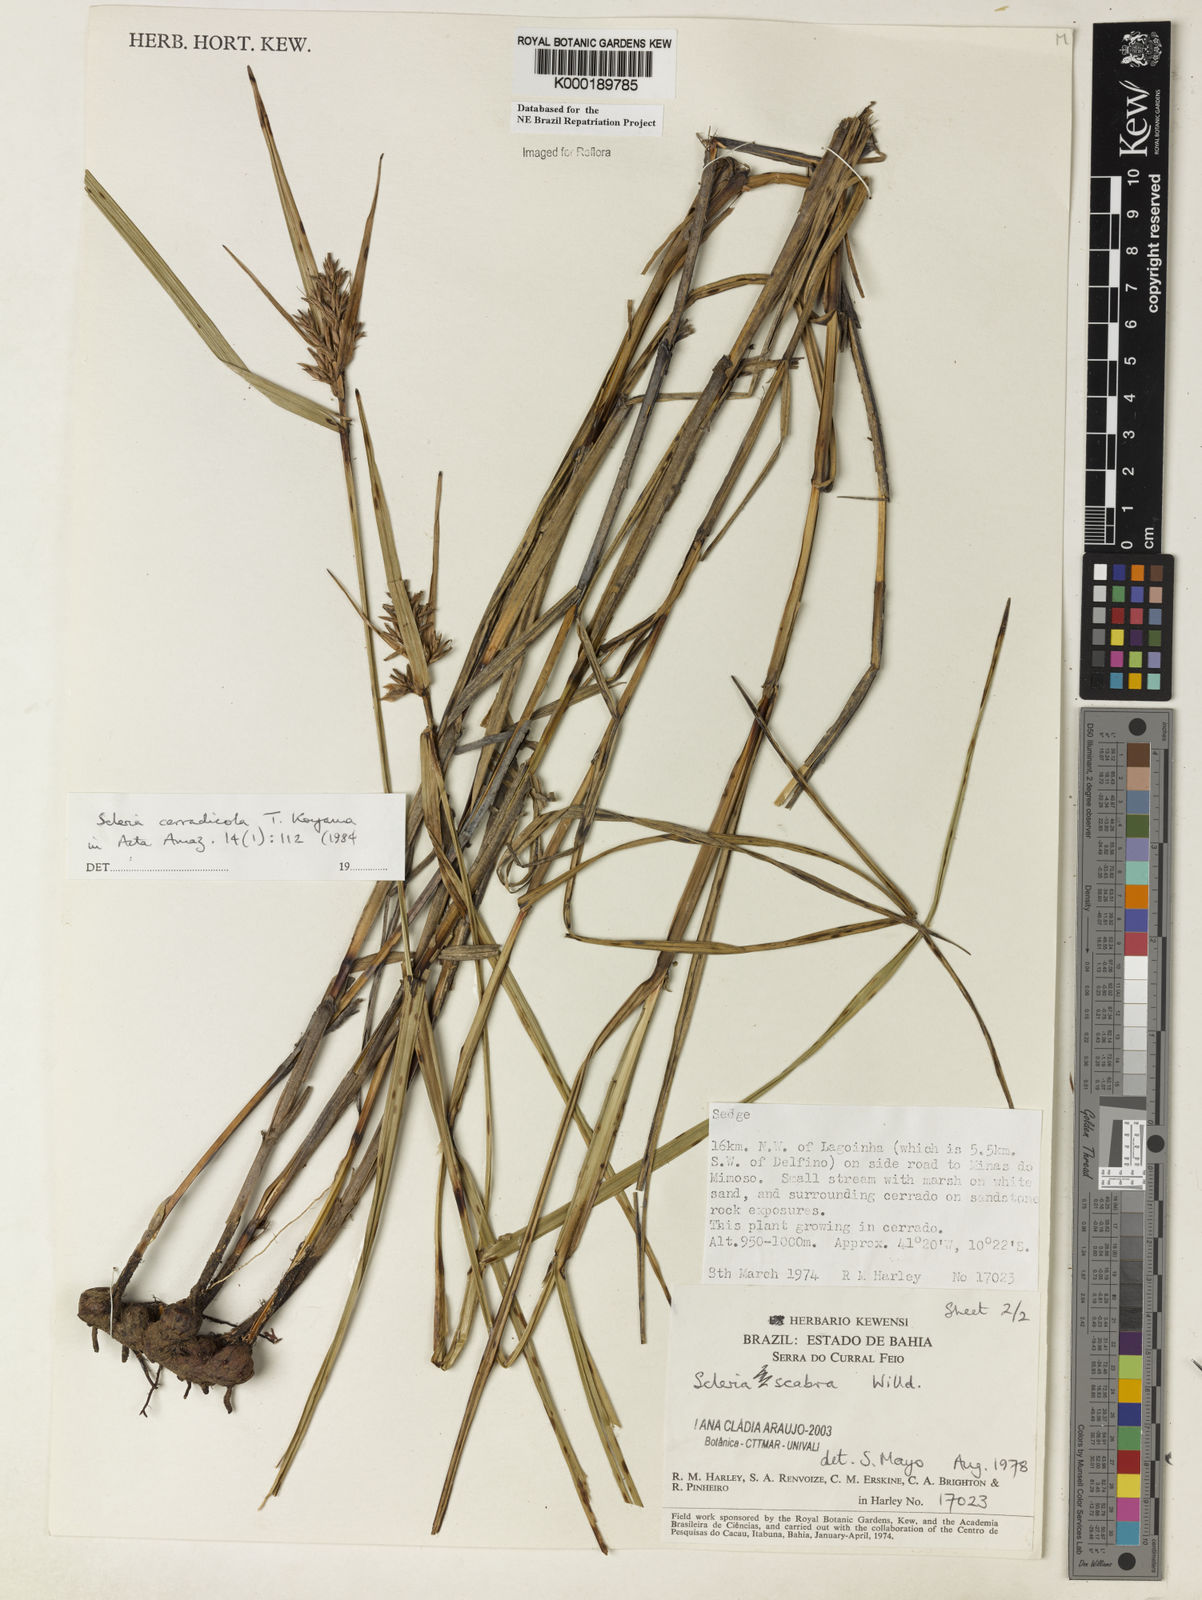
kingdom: Plantae
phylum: Tracheophyta
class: Liliopsida
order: Poales
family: Cyperaceae
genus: Scleria
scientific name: Scleria scabra
